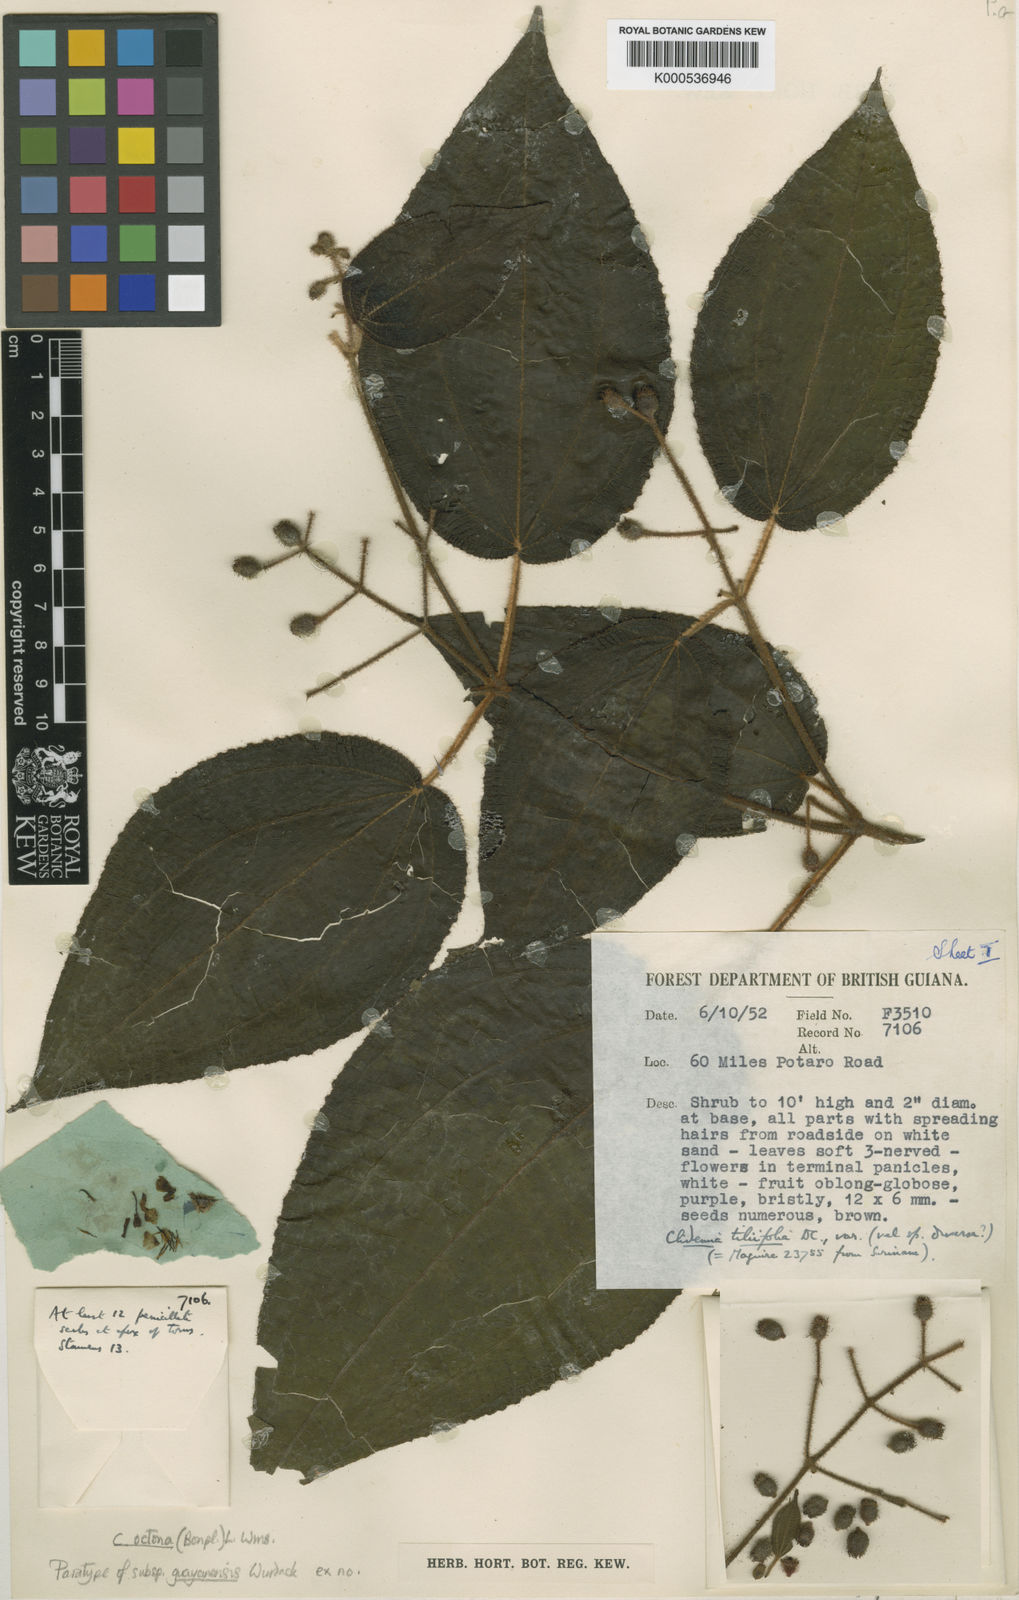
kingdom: Plantae
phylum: Tracheophyta
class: Magnoliopsida
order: Myrtales
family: Melastomataceae
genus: Miconia
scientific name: Miconia octona
